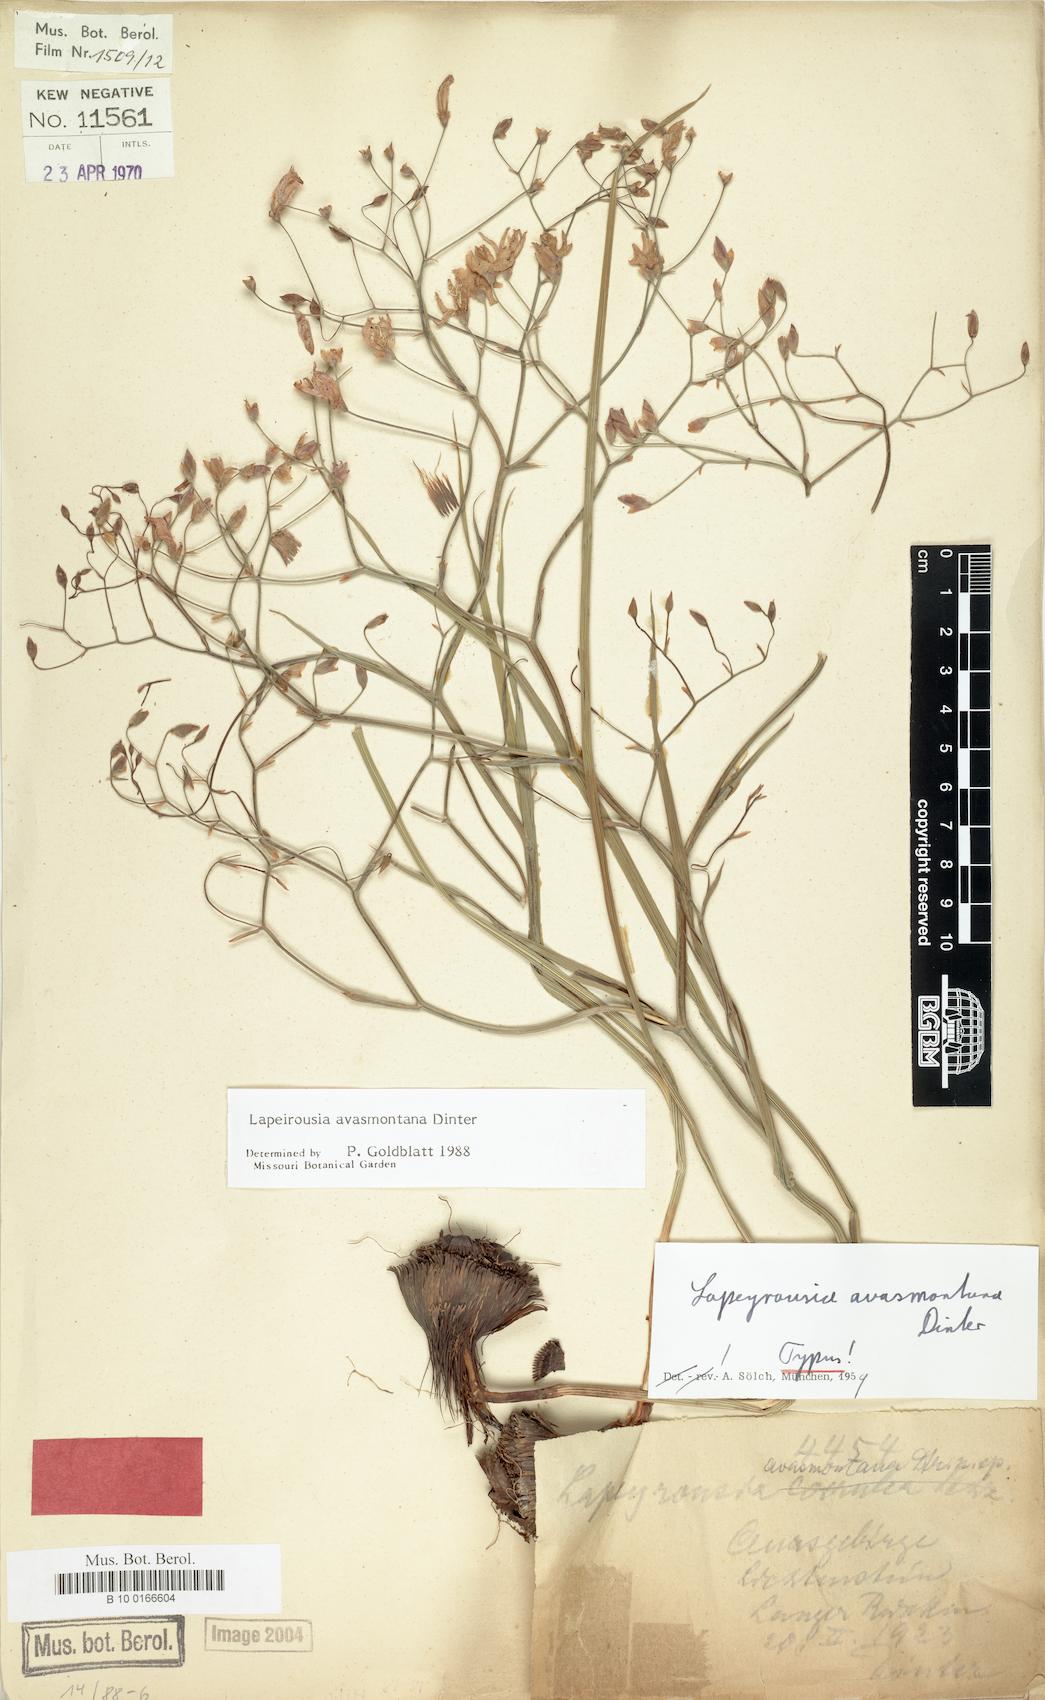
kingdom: Plantae
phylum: Tracheophyta
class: Liliopsida
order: Asparagales
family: Iridaceae
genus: Afrosolen
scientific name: Afrosolen avasmontanus
